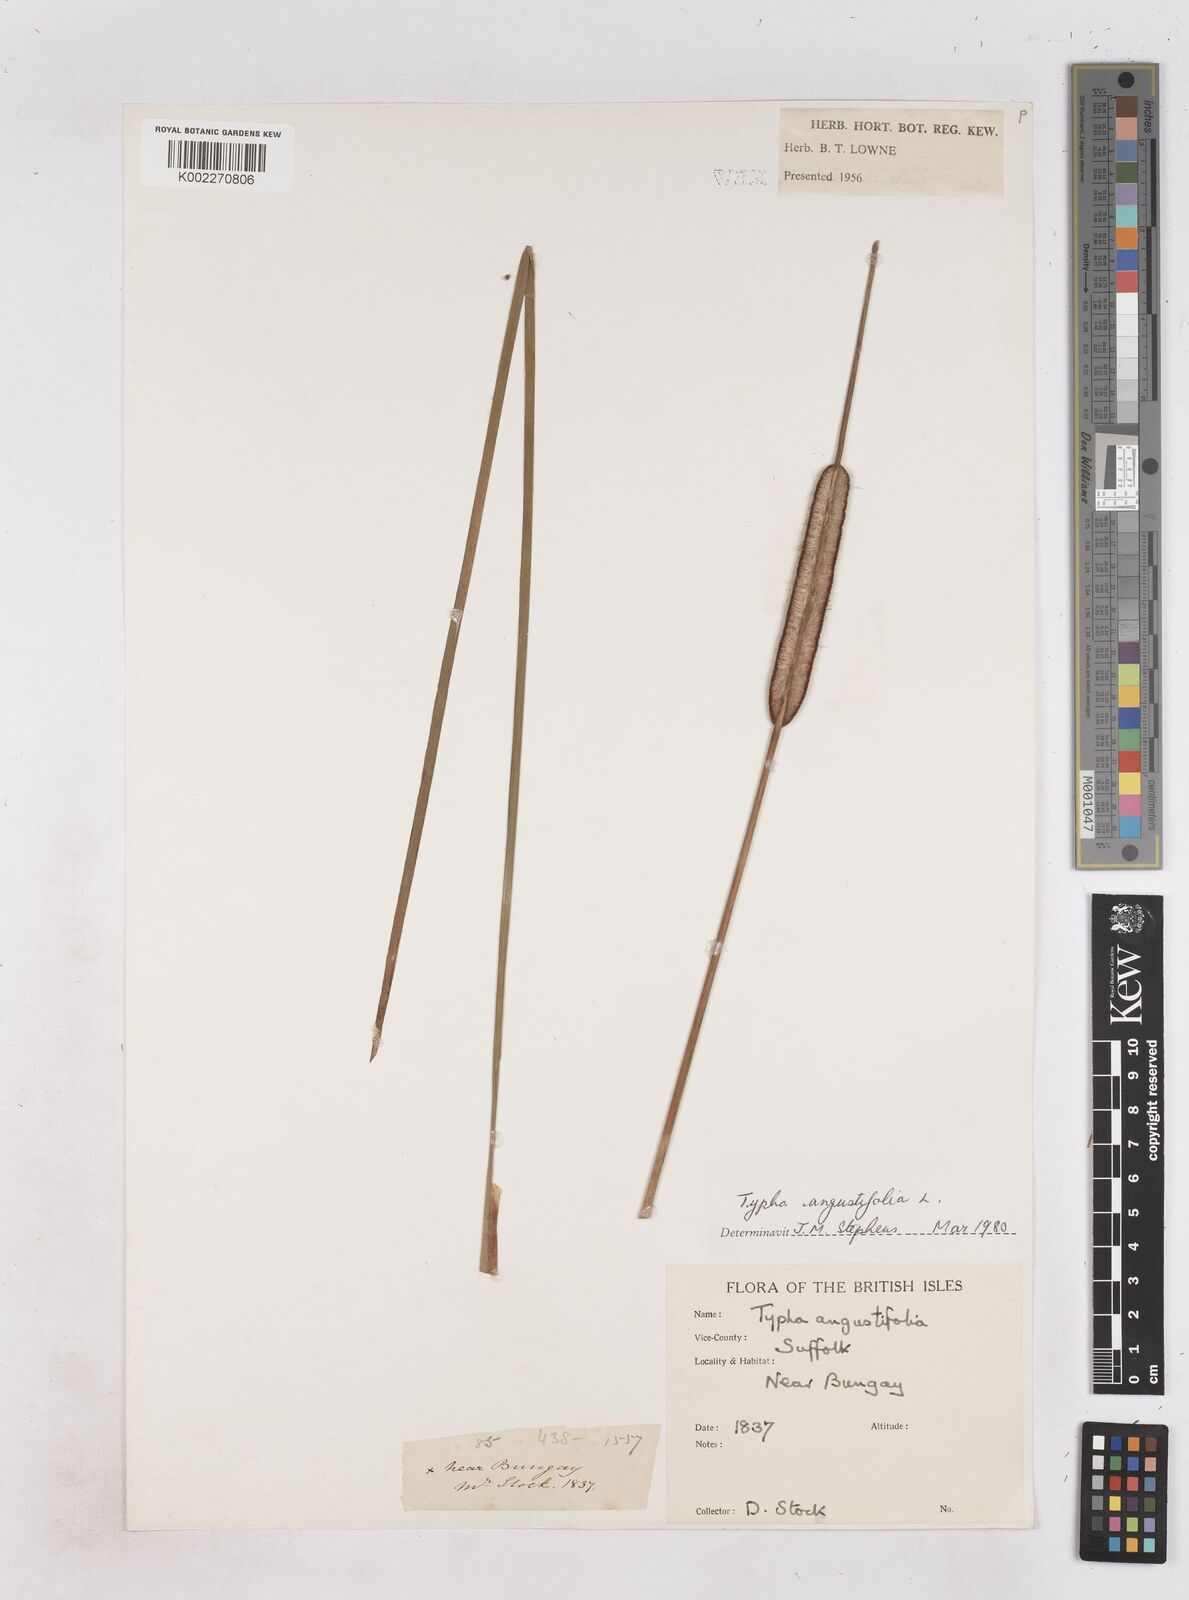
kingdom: Plantae
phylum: Tracheophyta
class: Liliopsida
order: Poales
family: Typhaceae
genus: Typha
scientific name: Typha angustifolia
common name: Lesser bulrush
